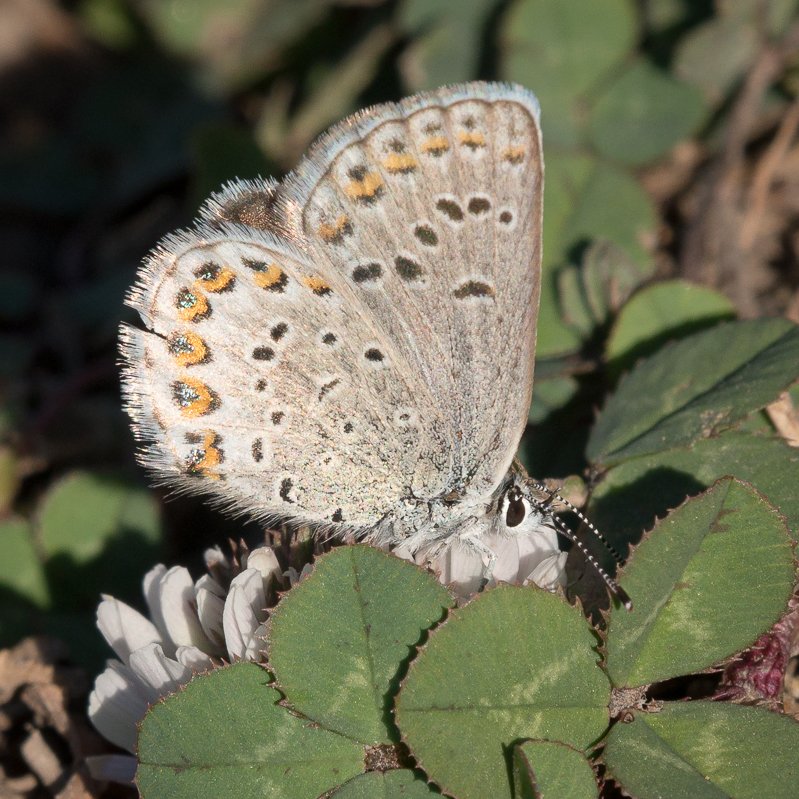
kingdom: Animalia
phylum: Arthropoda
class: Insecta
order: Lepidoptera
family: Lycaenidae
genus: Lycaeides
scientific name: Lycaeides idas
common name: Northern Blue
